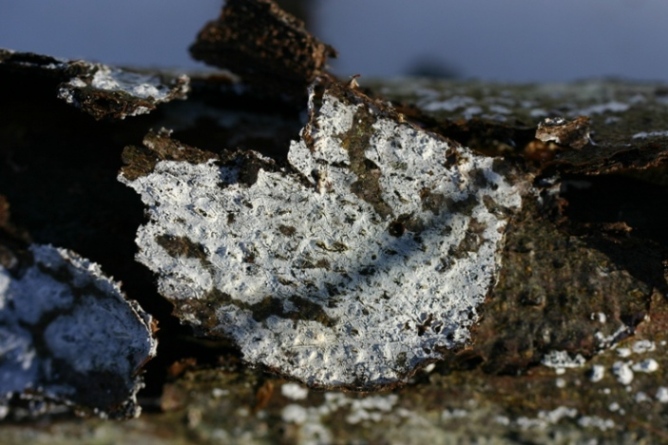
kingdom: Fungi
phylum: Basidiomycota
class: Agaricomycetes
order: Corticiales
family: Corticiaceae
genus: Lyomyces
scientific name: Lyomyces sambuci
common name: almindelig hyldehinde
